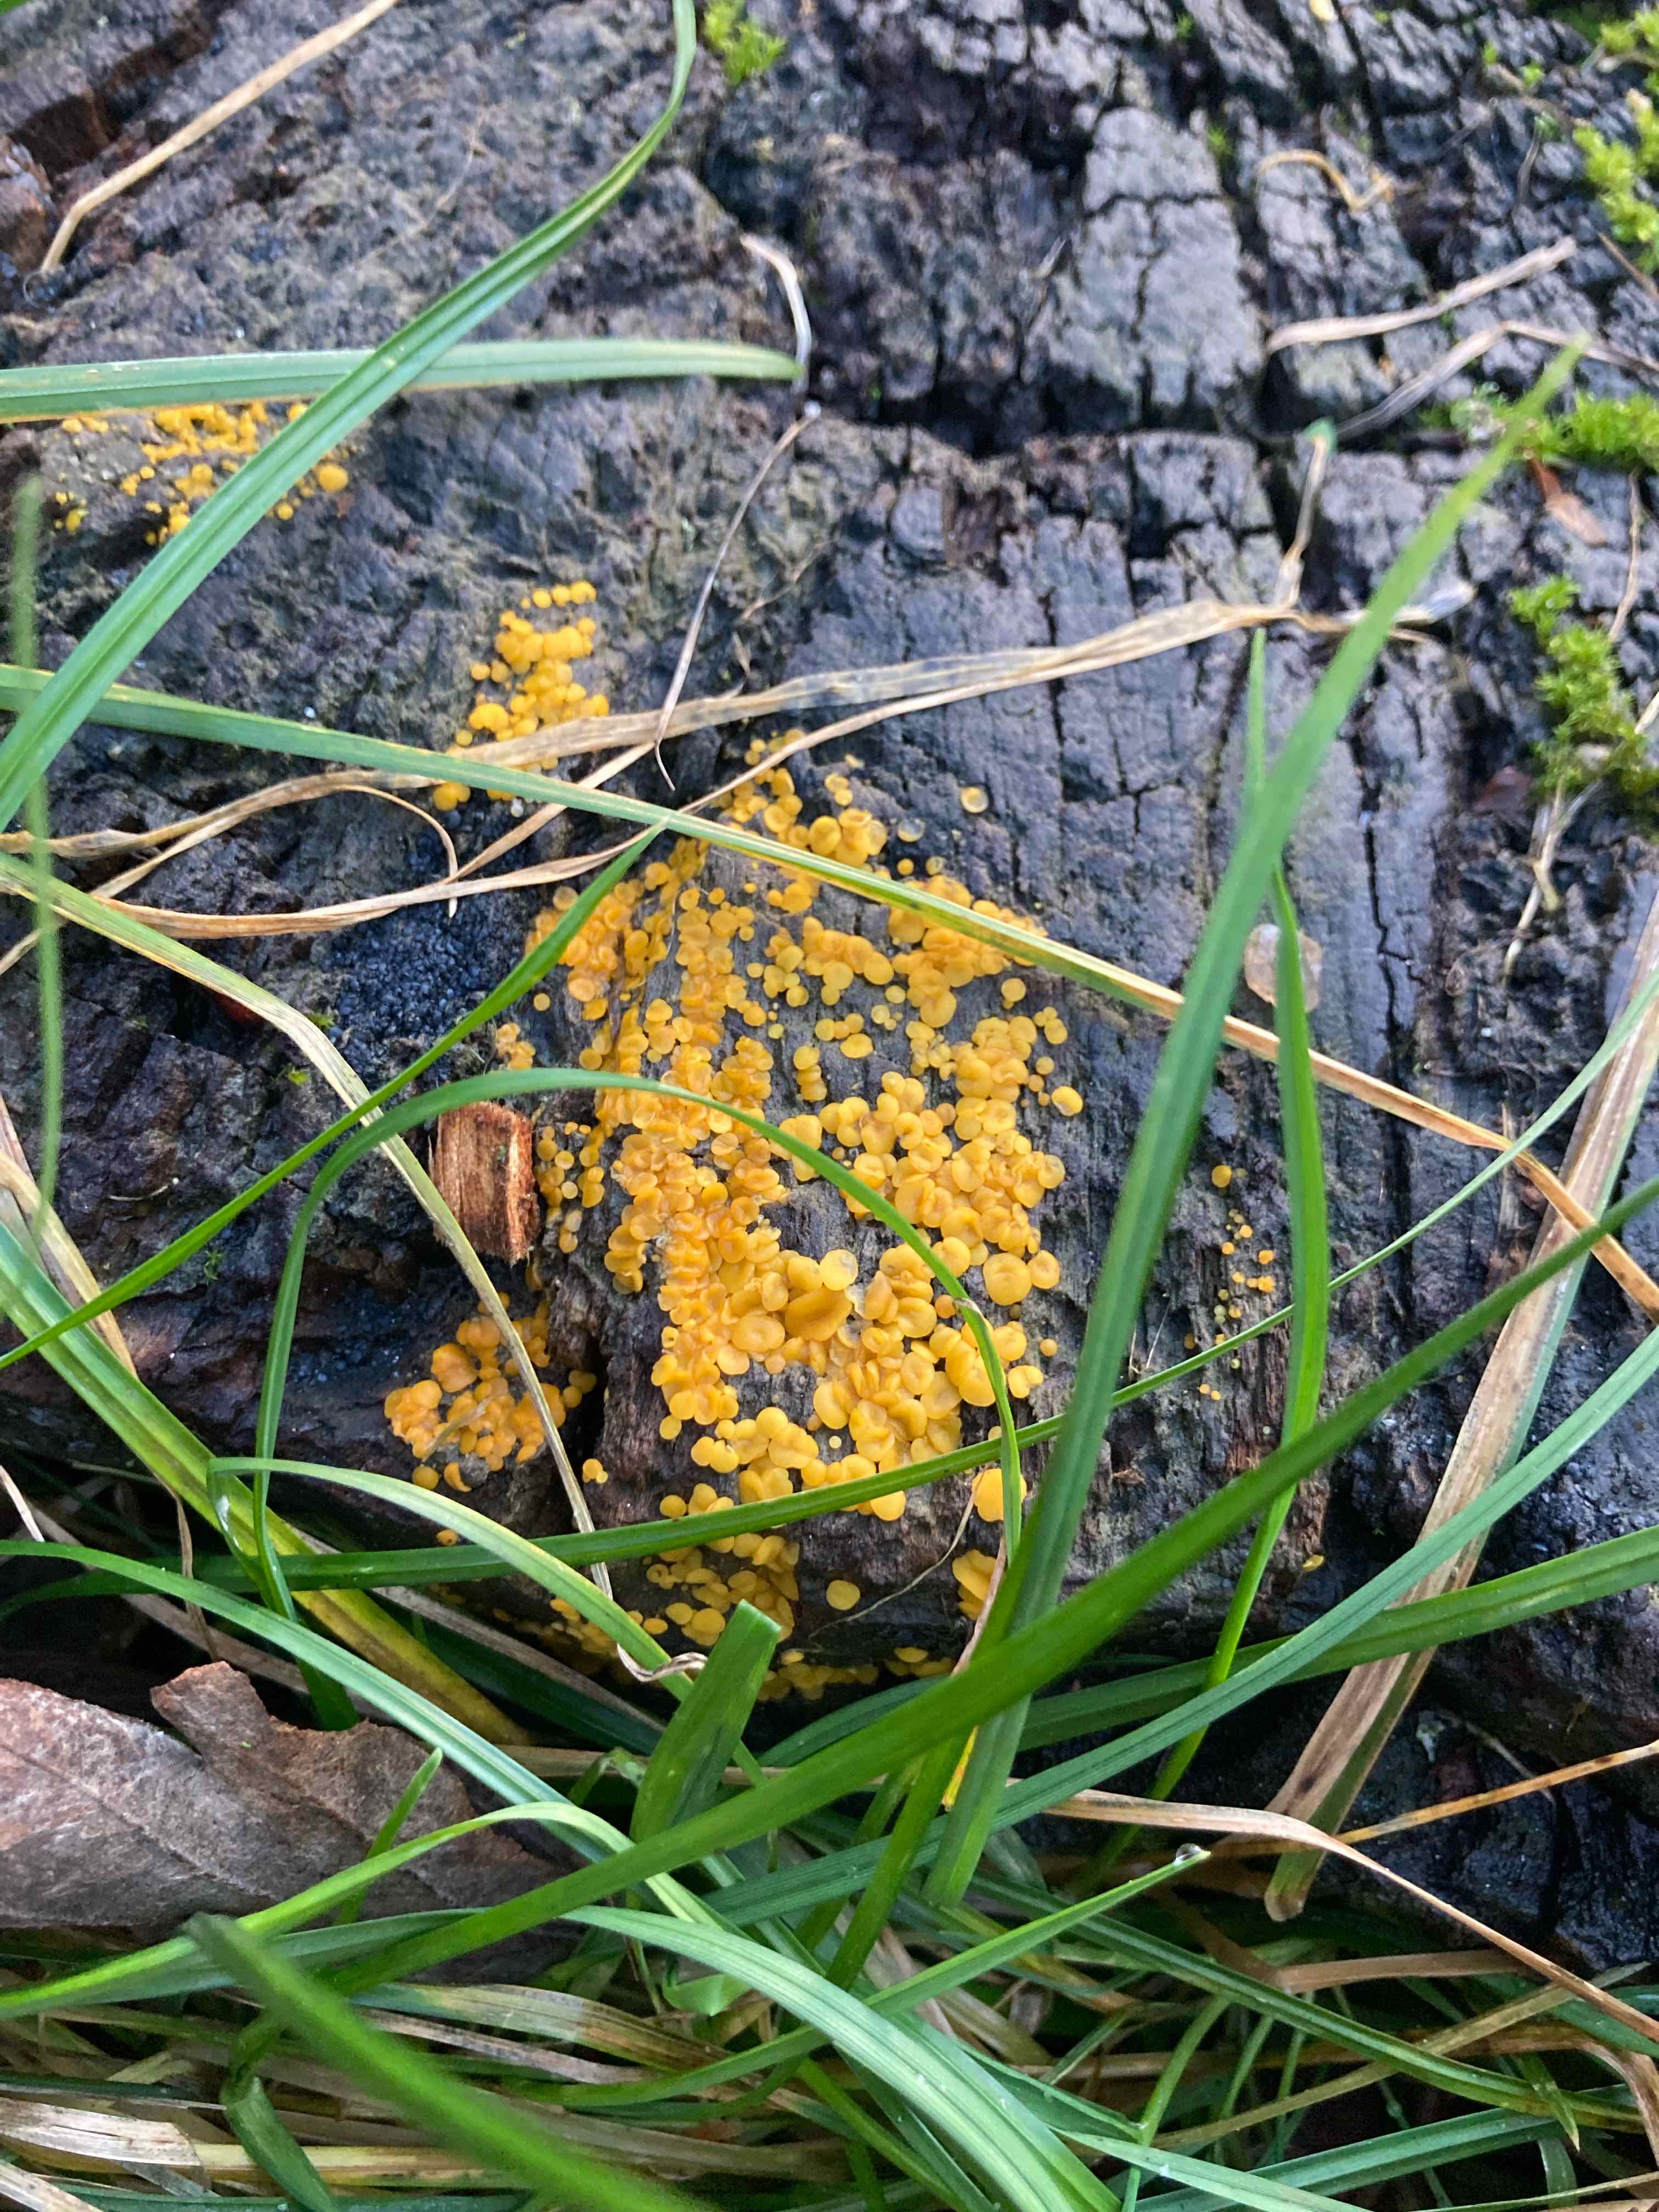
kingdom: Fungi
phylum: Ascomycota
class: Leotiomycetes
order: Helotiales
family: Pezizellaceae
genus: Calycina
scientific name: Calycina citrina
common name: almindelig gulskive
